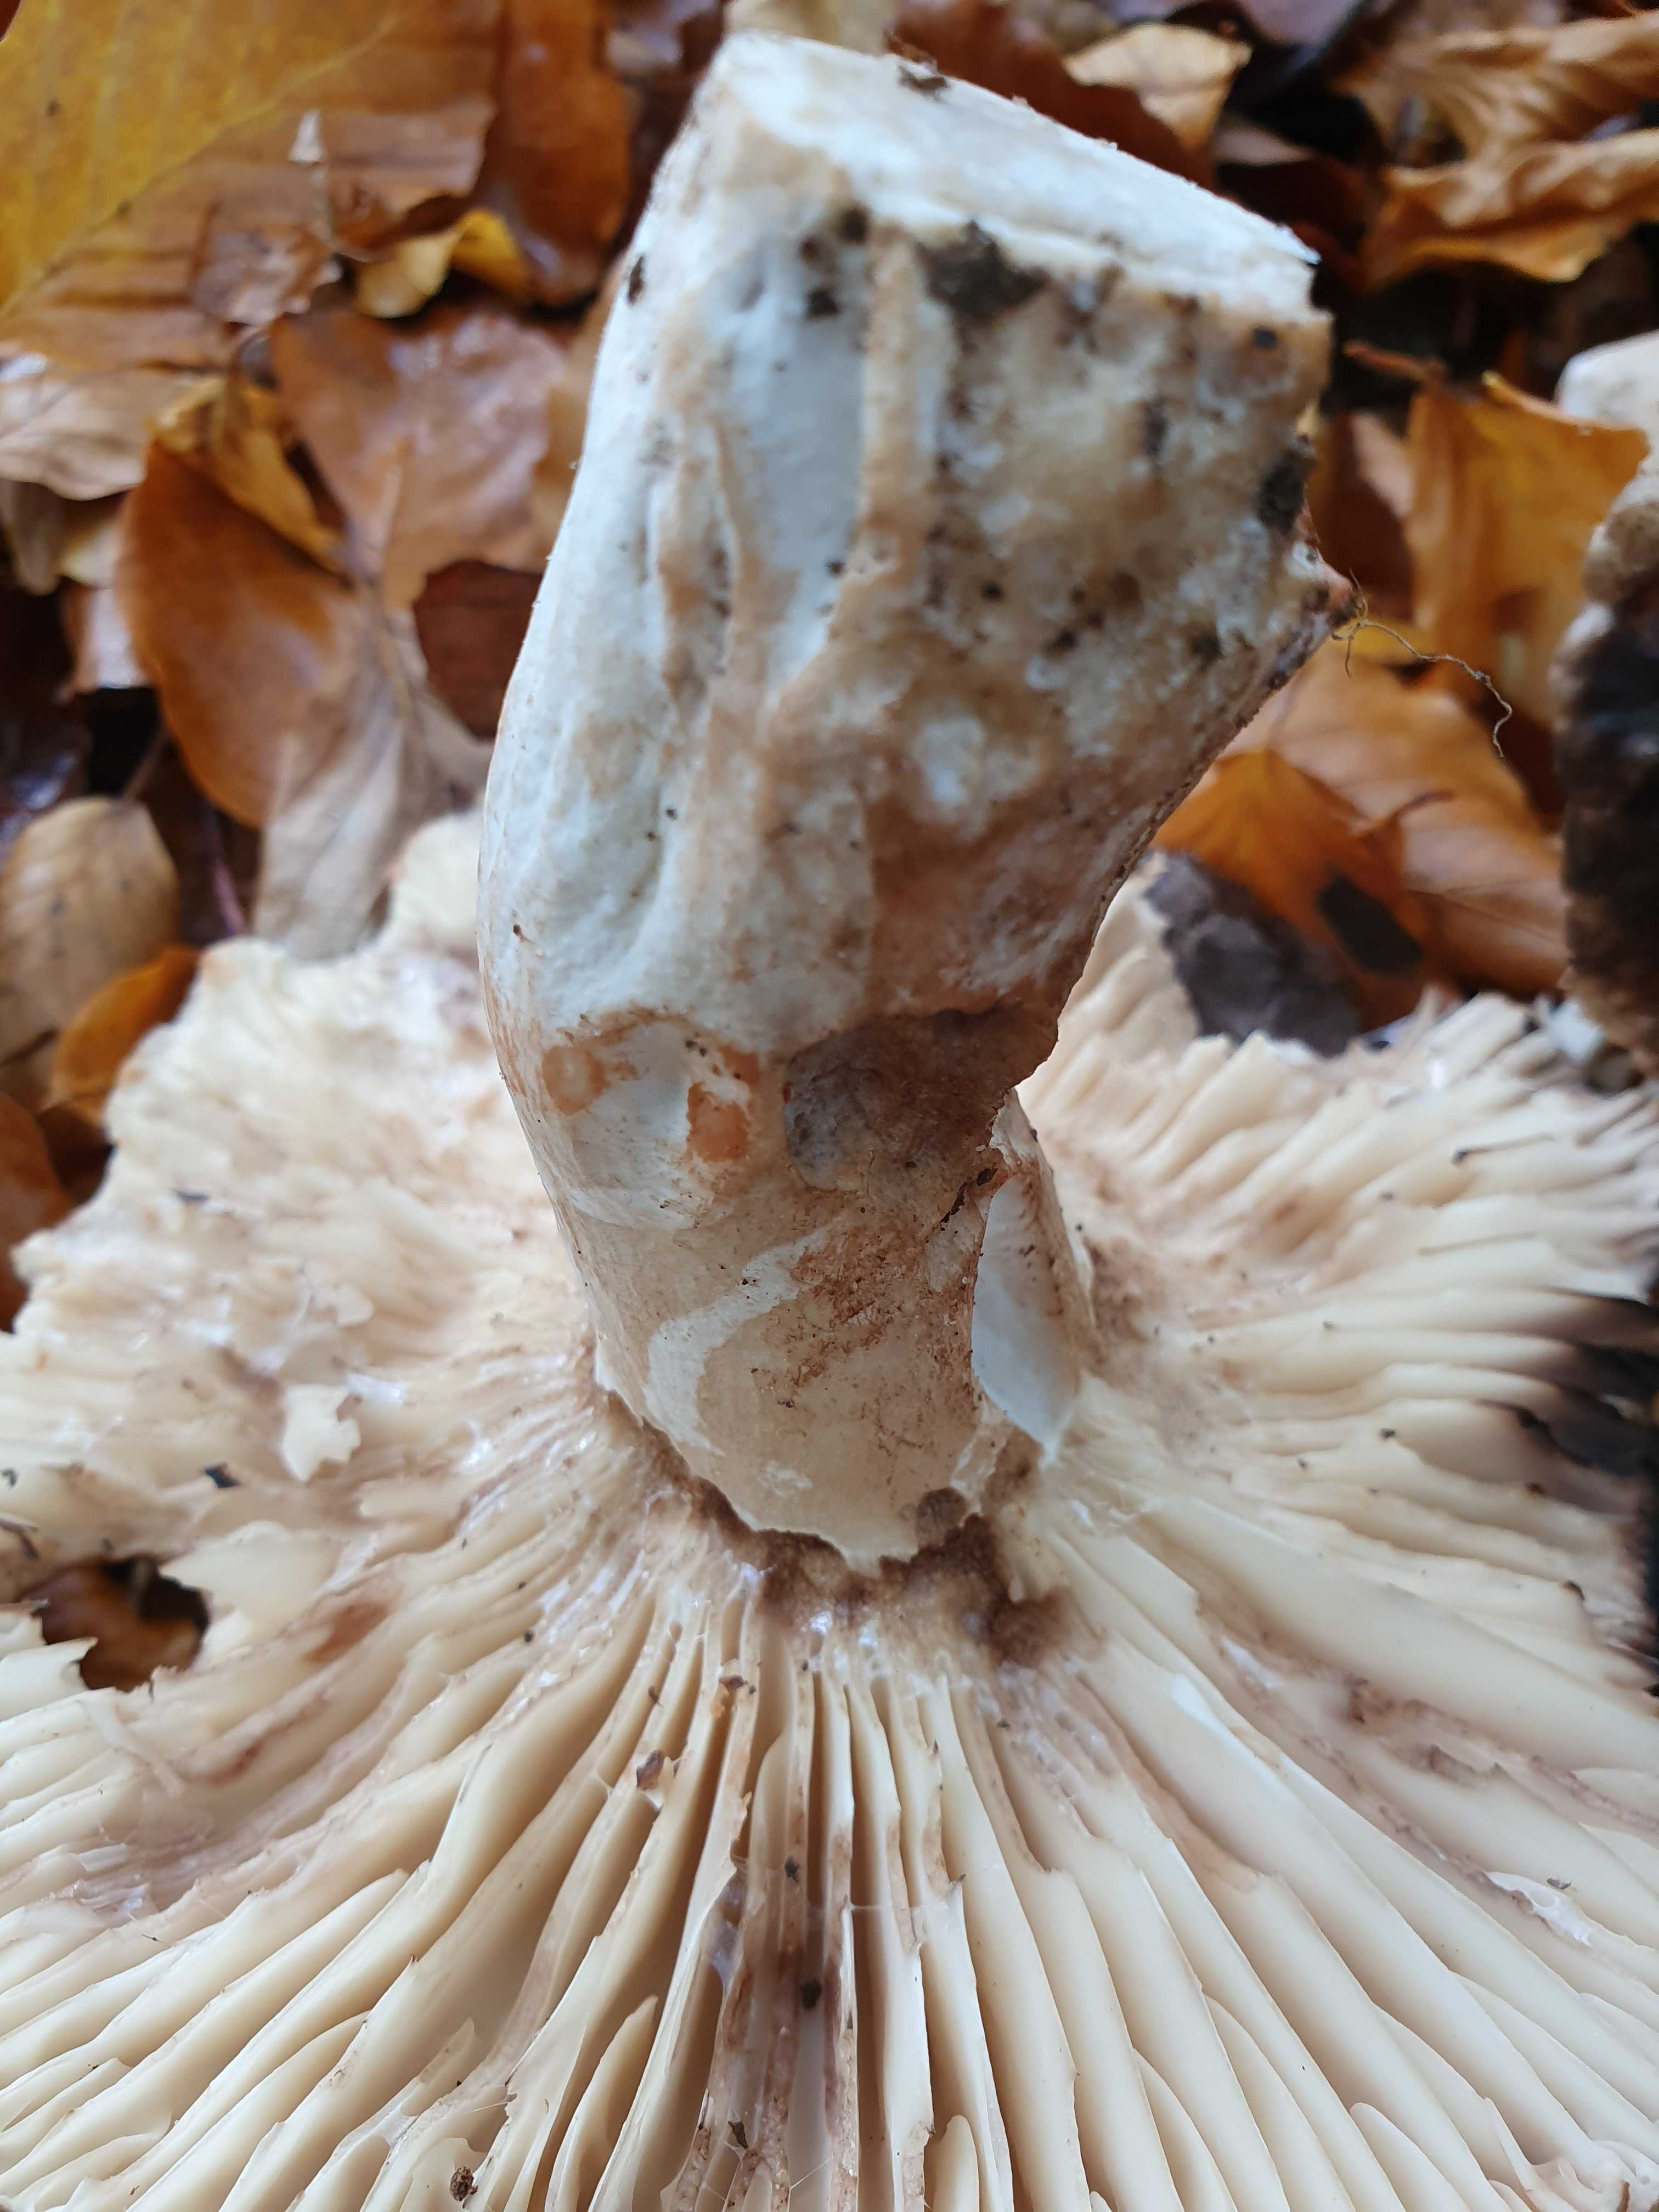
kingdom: Fungi
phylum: Basidiomycota
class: Agaricomycetes
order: Russulales
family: Russulaceae
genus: Russula
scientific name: Russula adusta
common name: sværtende skørhat
